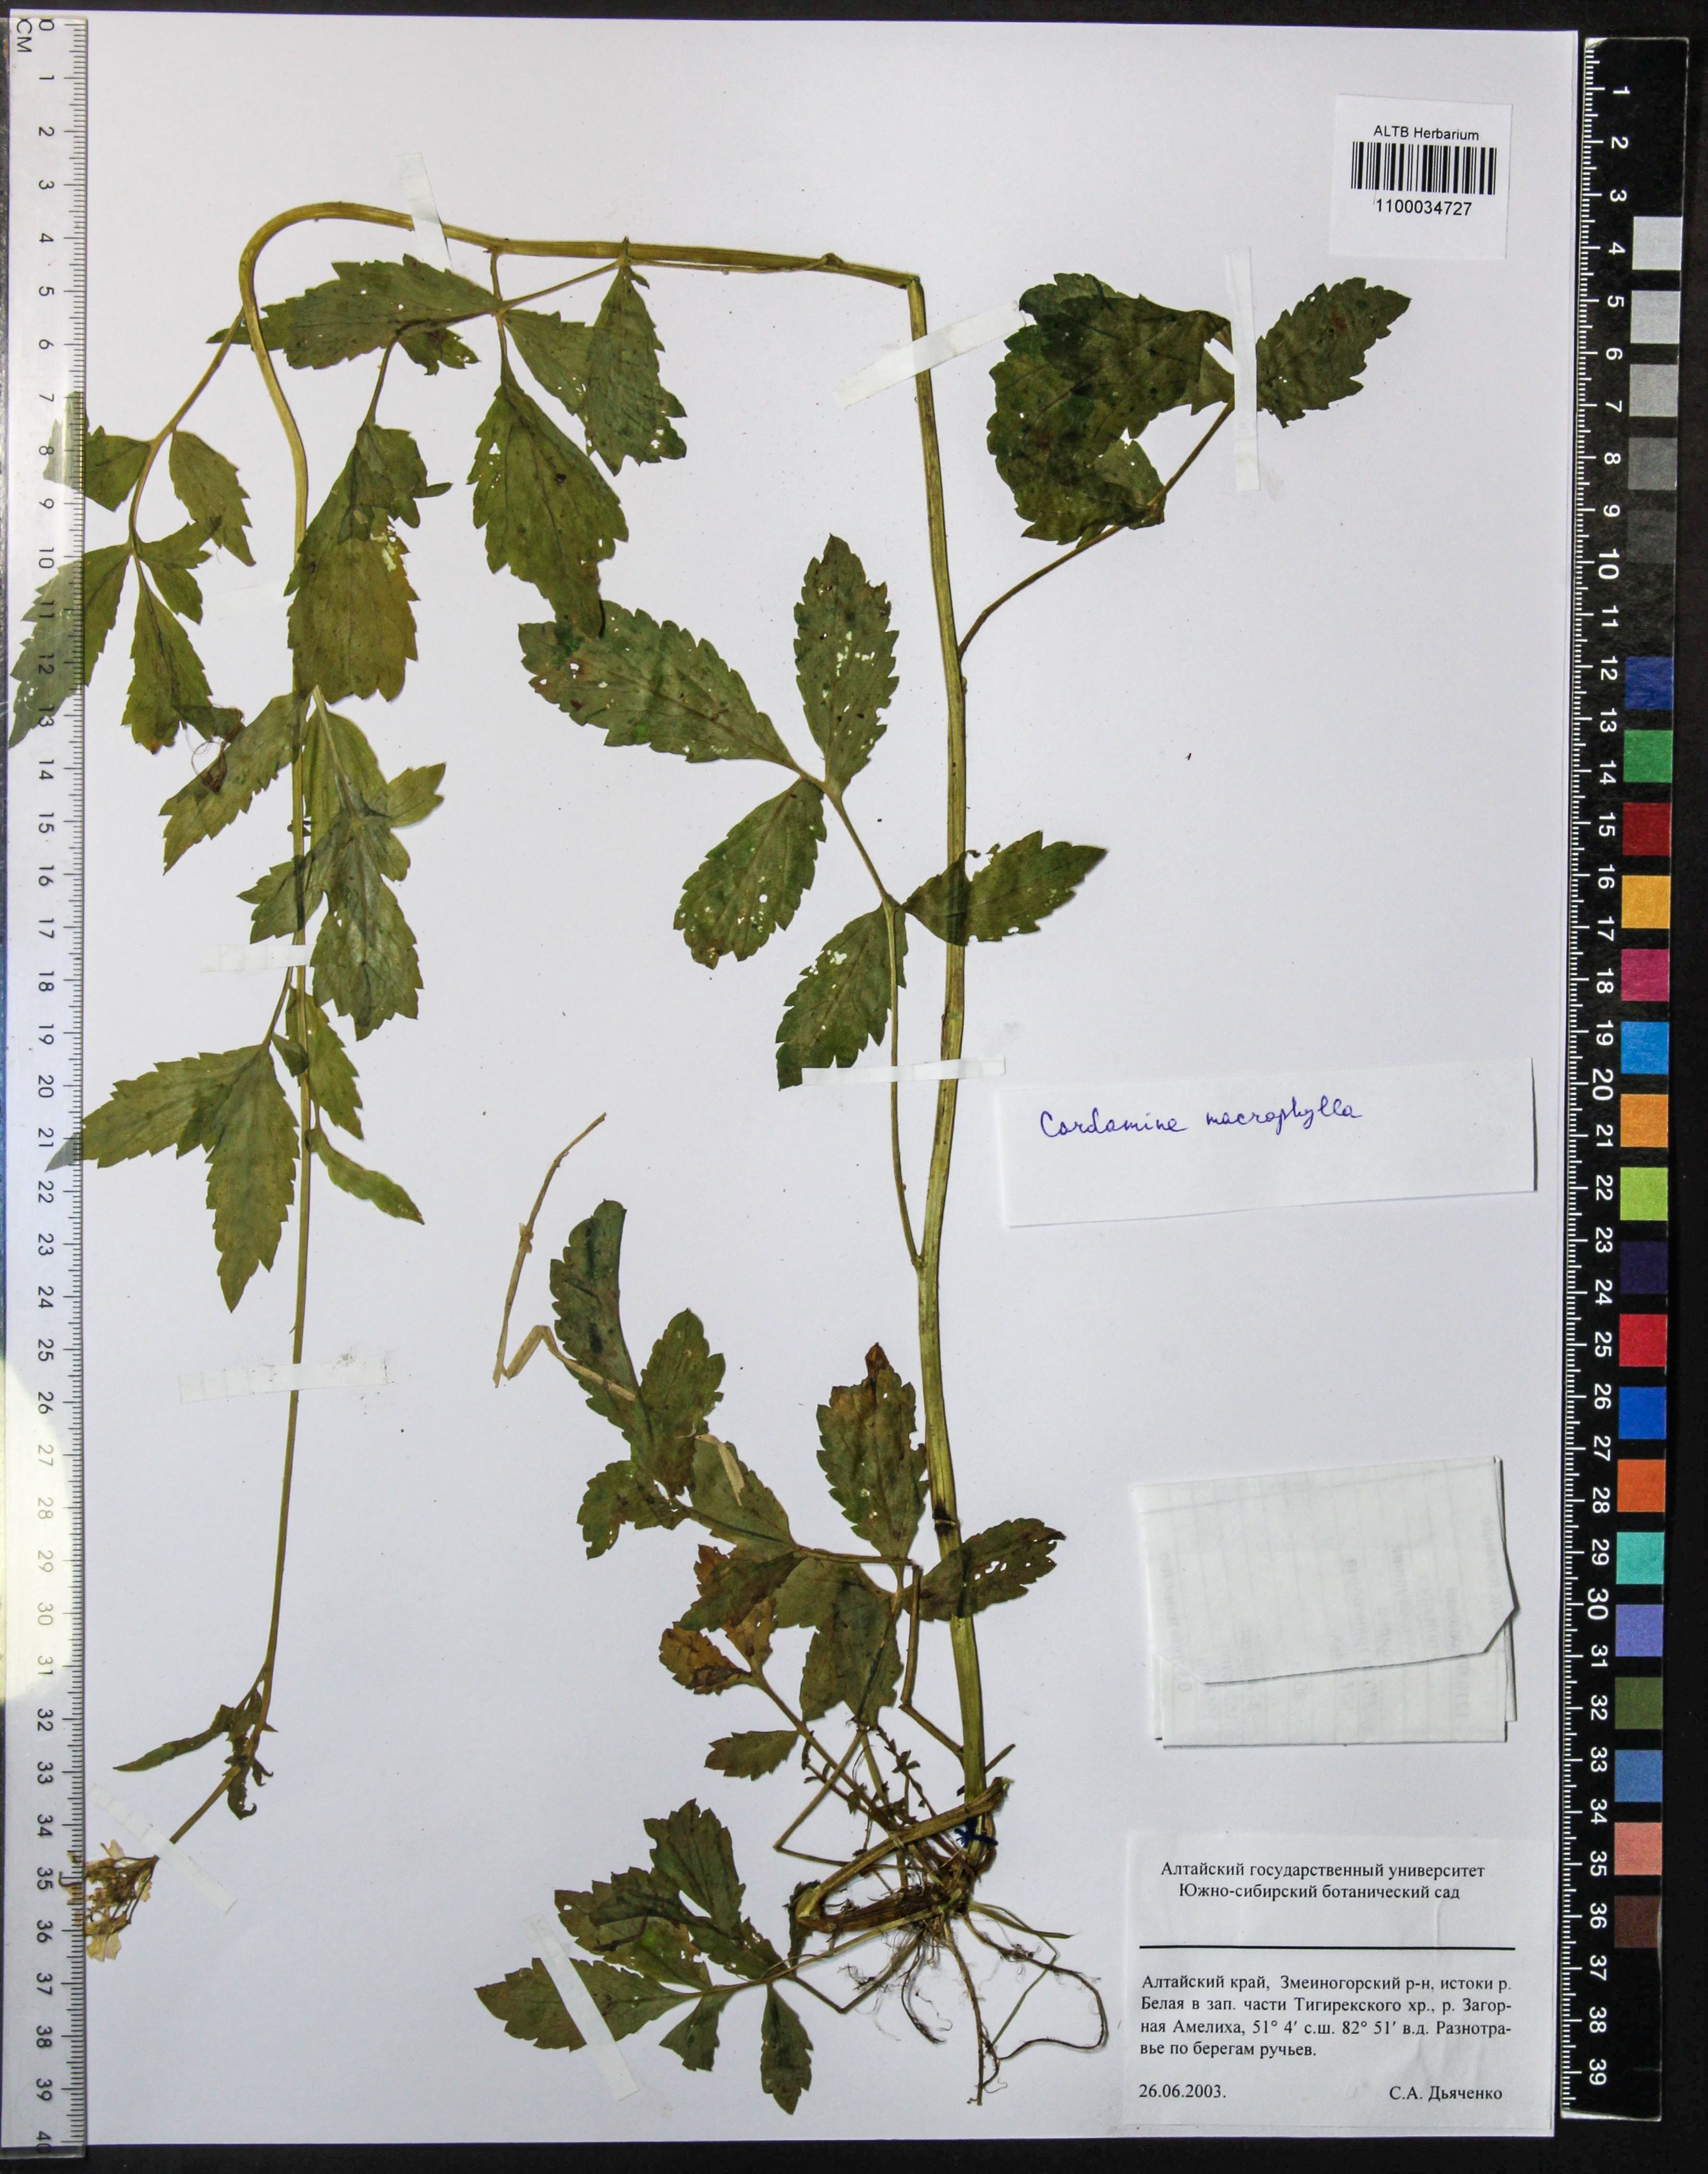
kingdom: Plantae
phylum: Tracheophyta
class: Magnoliopsida
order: Brassicales
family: Brassicaceae
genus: Cardamine
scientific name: Cardamine macrophylla
